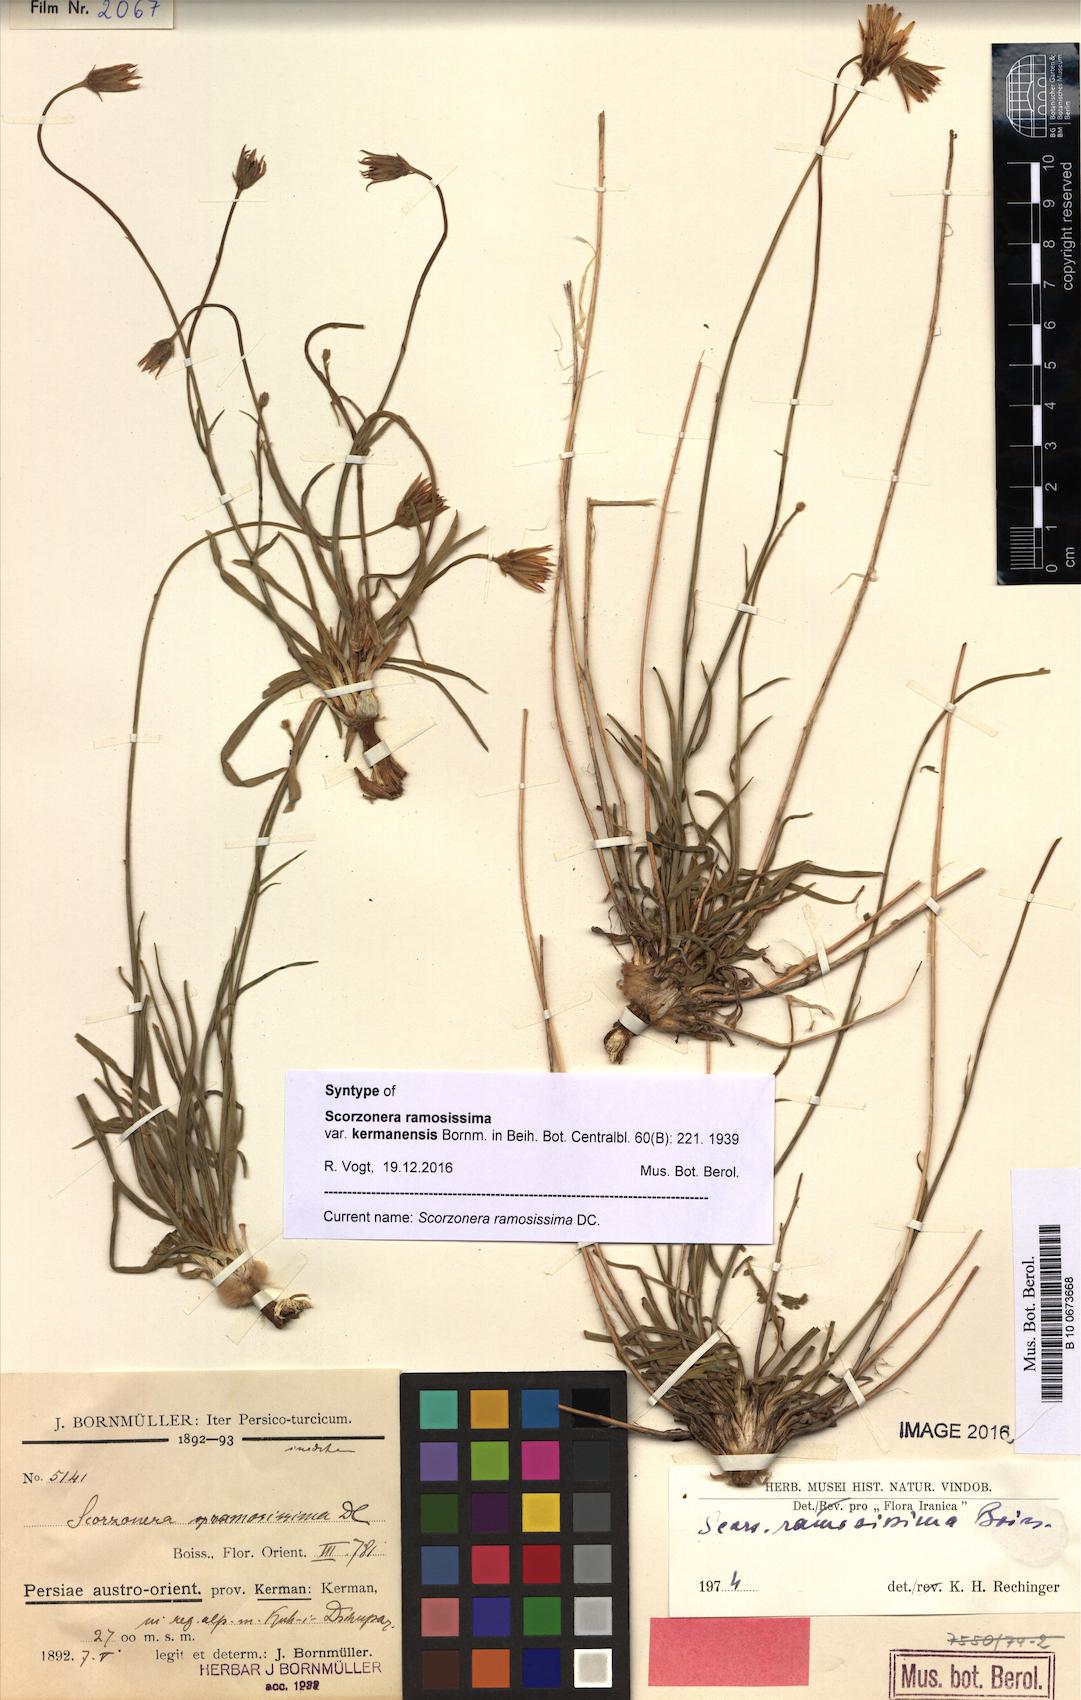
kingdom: Plantae
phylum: Tracheophyta
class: Magnoliopsida
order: Asterales
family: Asteraceae
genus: Gelasia
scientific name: Gelasia ramosissima
